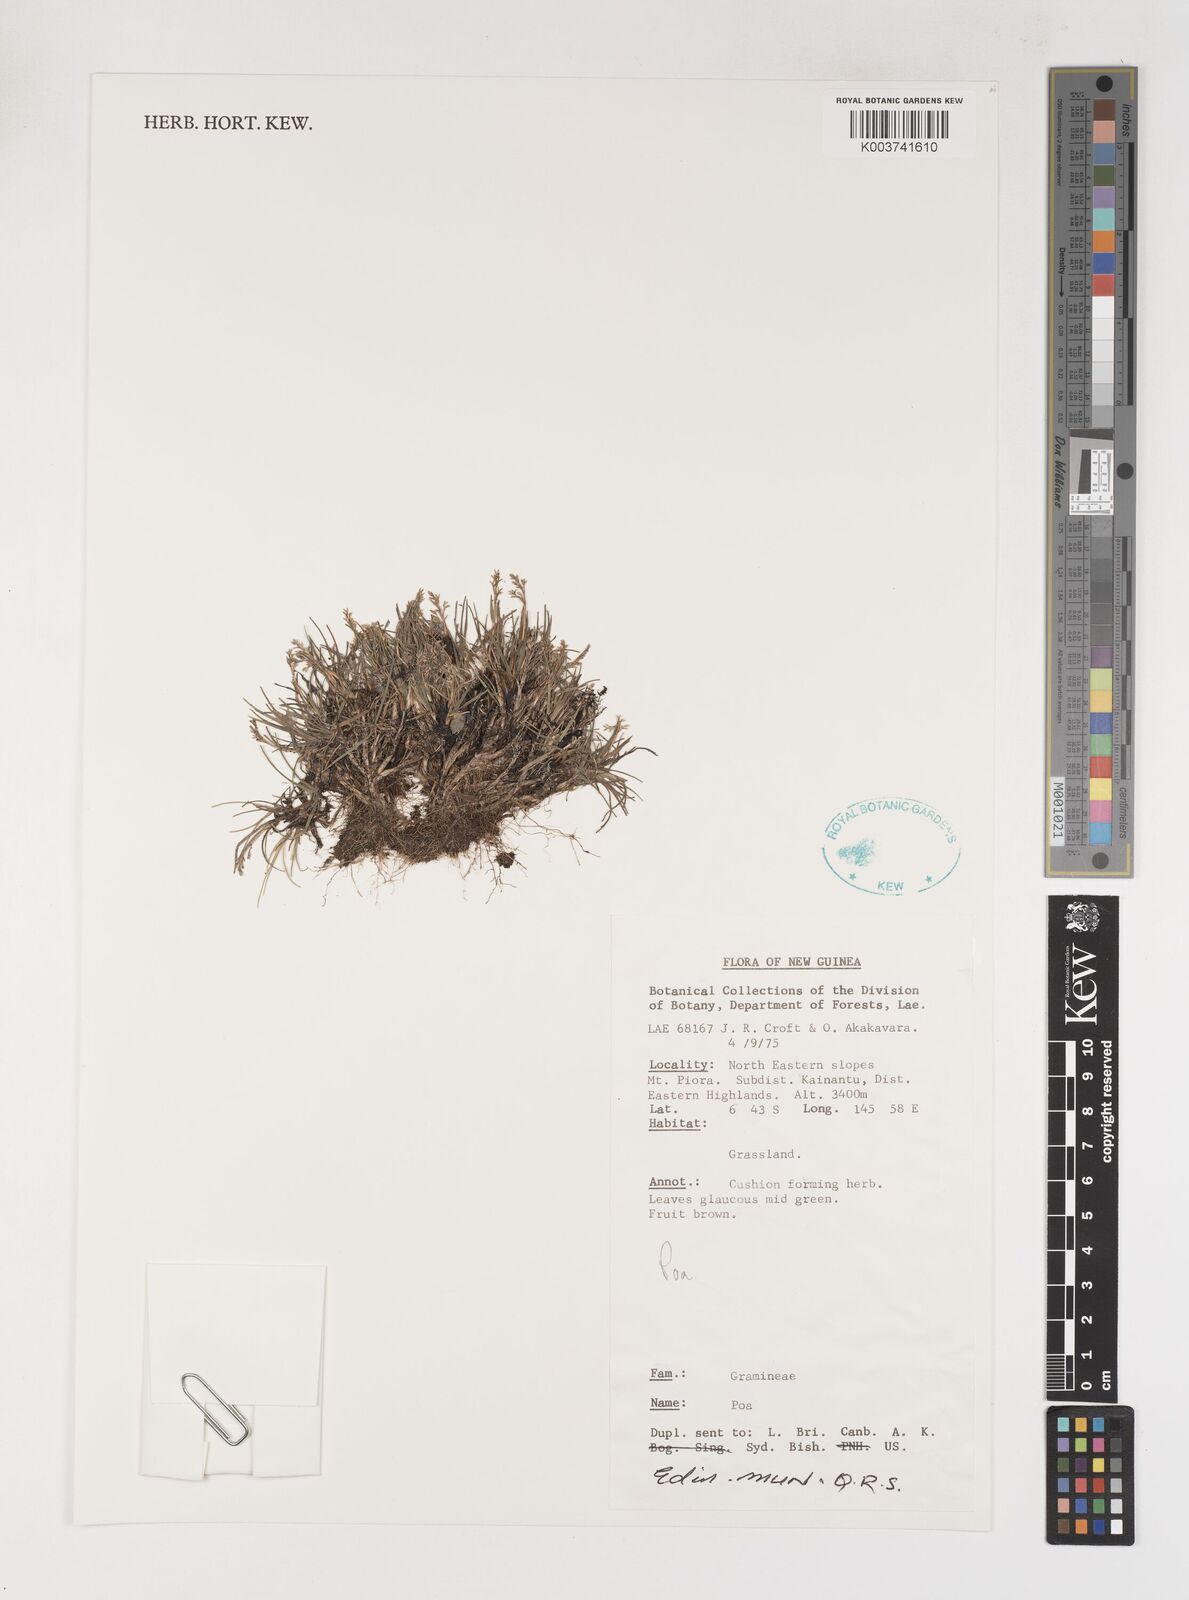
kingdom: Plantae
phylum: Tracheophyta
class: Liliopsida
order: Poales
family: Poaceae
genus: Poa
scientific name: Poa
